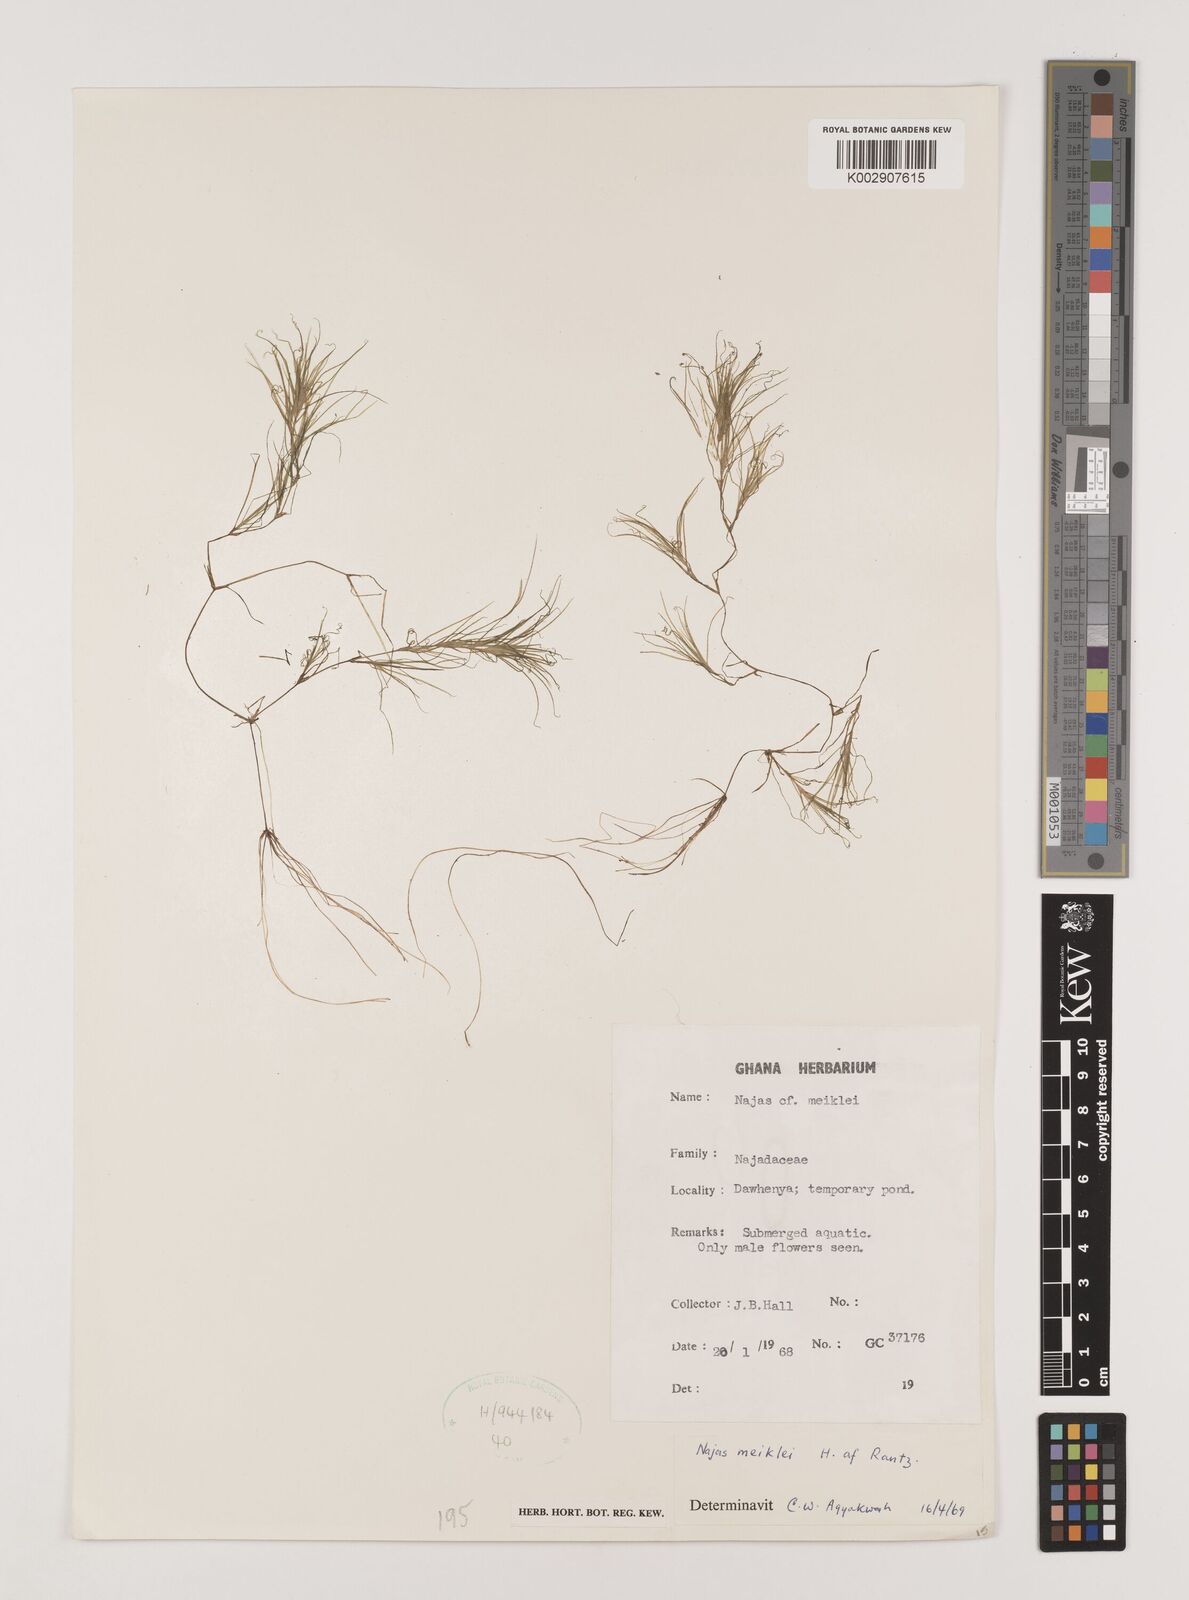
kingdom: Plantae
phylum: Tracheophyta
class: Liliopsida
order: Alismatales
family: Hydrocharitaceae
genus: Najas
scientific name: Najas testui
